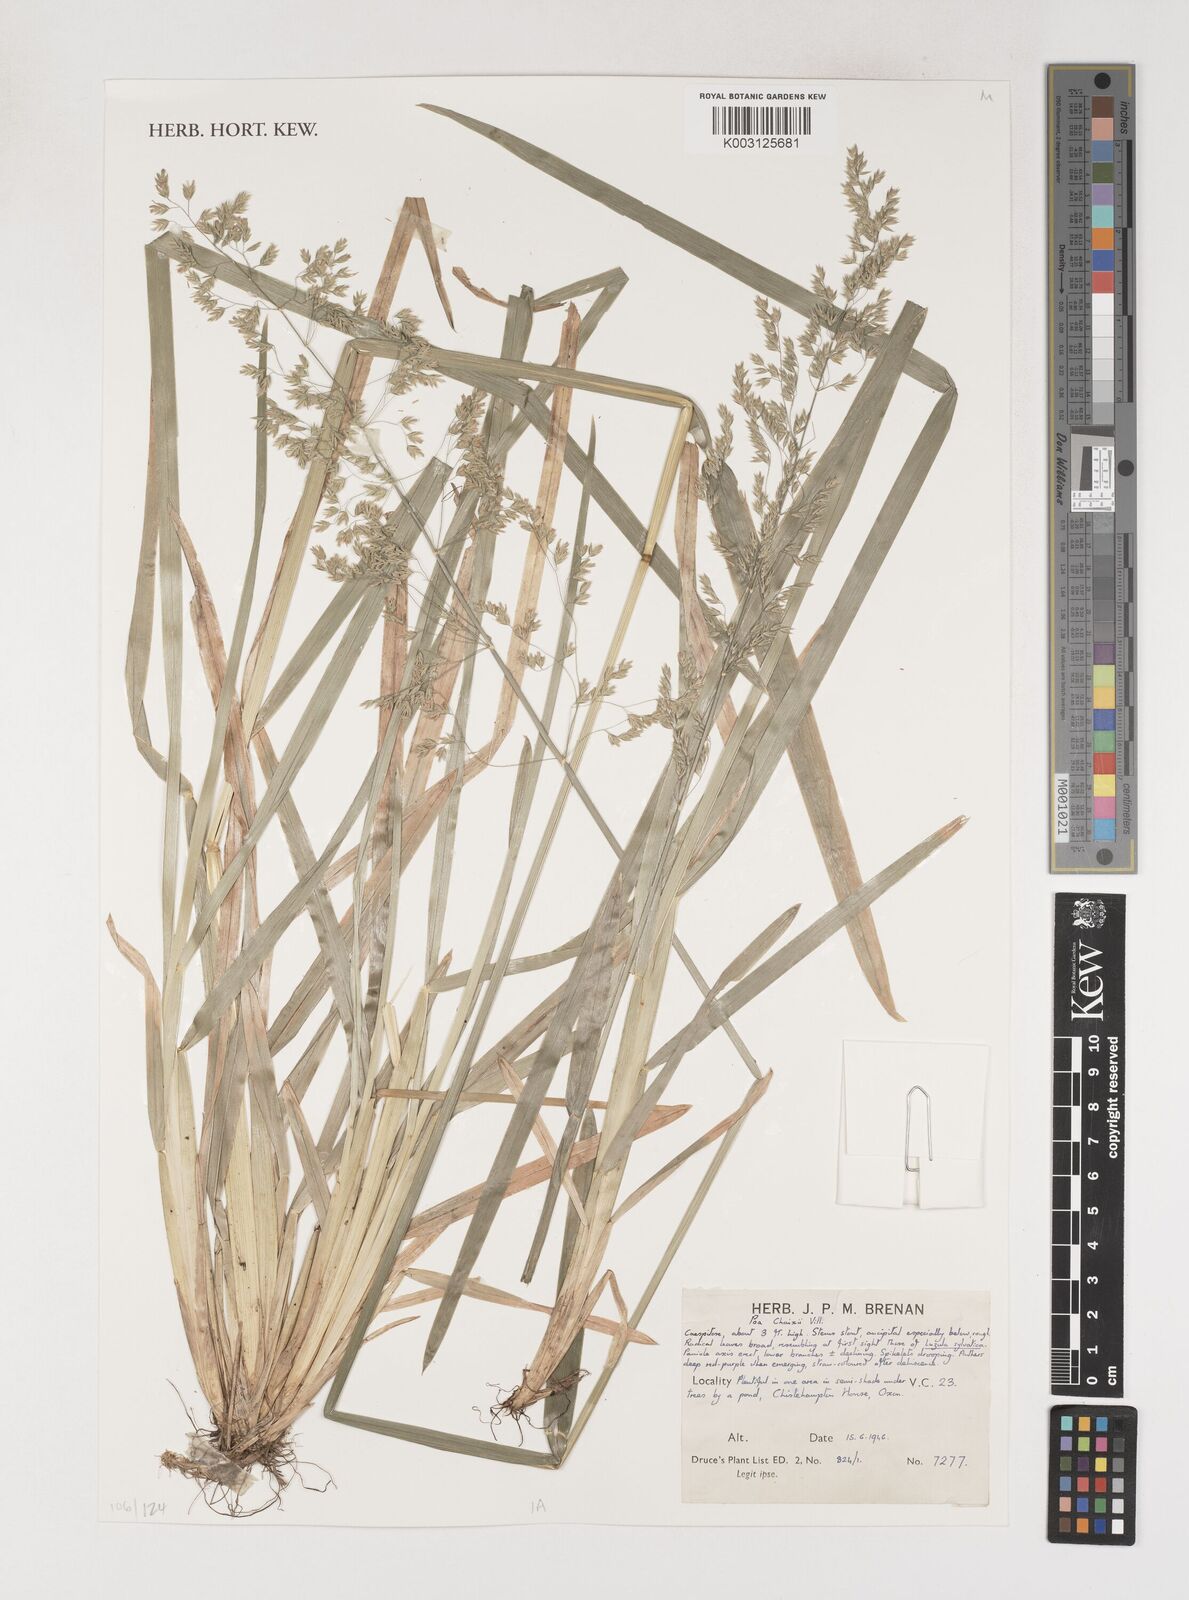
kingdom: Plantae
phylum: Tracheophyta
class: Liliopsida
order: Poales
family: Poaceae
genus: Poa
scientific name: Poa chaixii
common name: Broad-leaved meadow-grass
